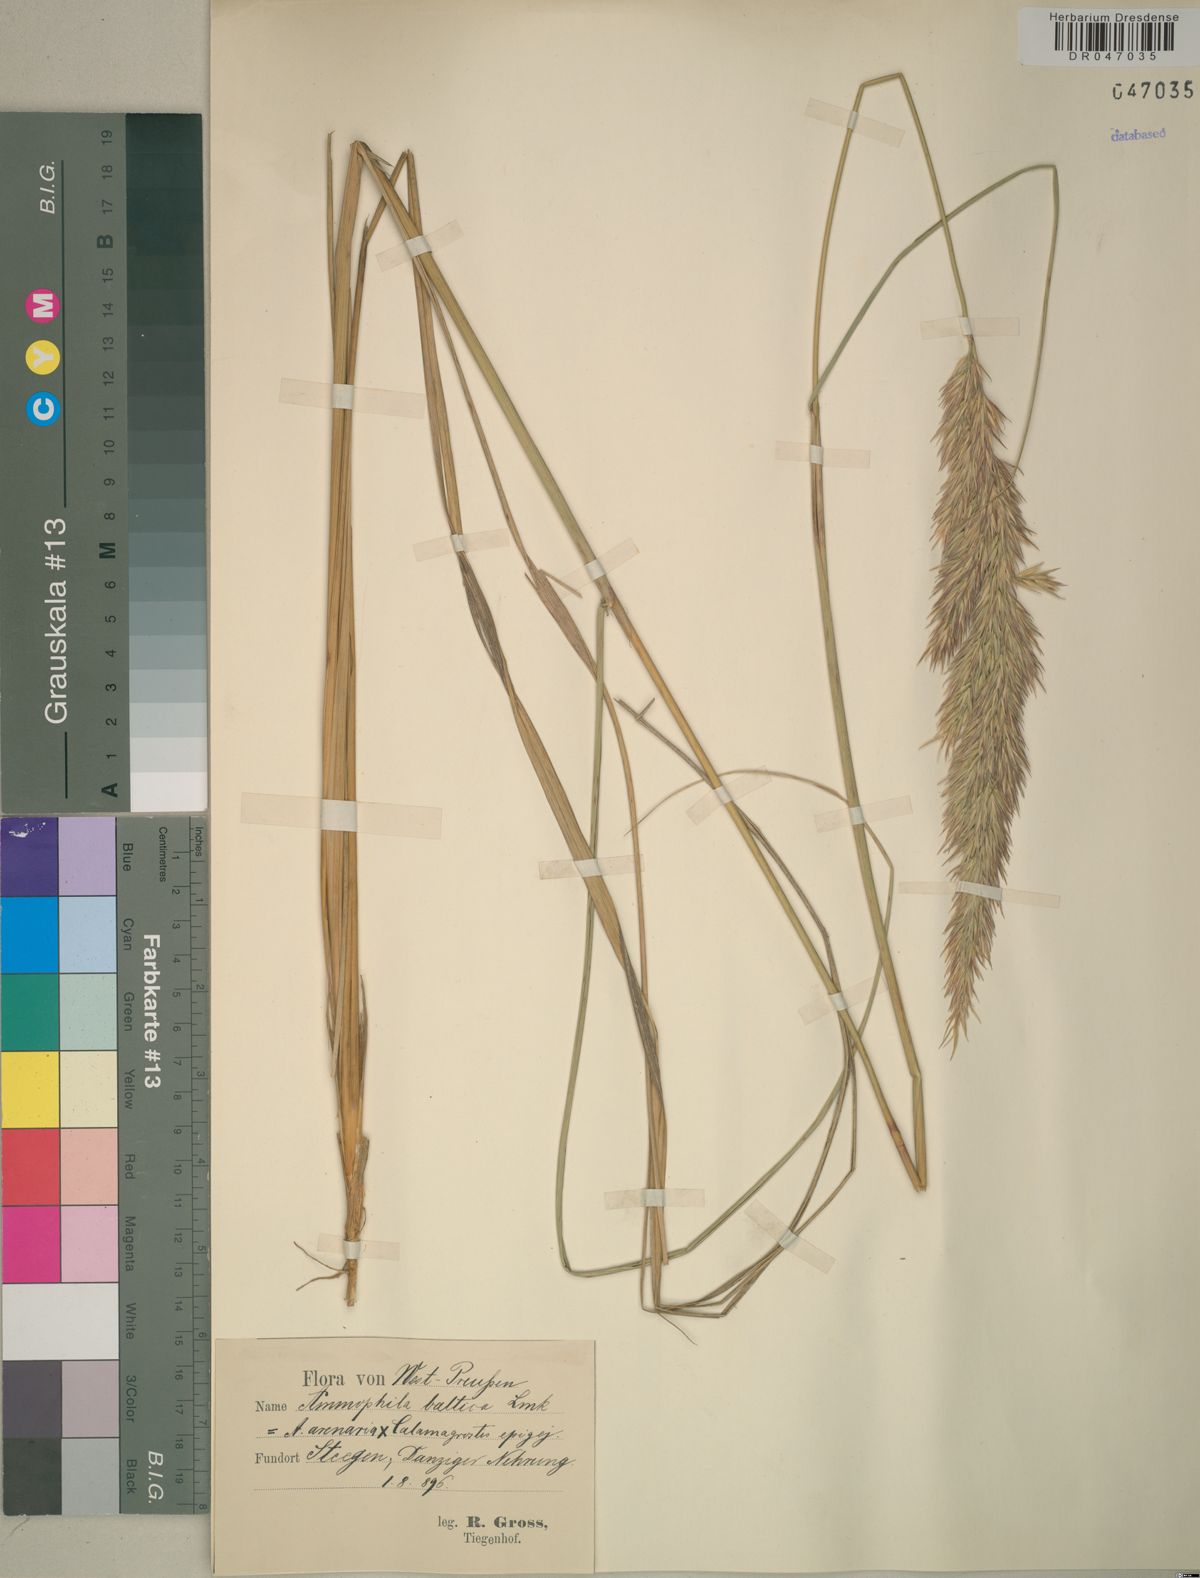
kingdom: Plantae
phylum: Tracheophyta
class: Liliopsida
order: Poales
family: Poaceae
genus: Calamagrostis
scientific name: Calamagrostis baltica
